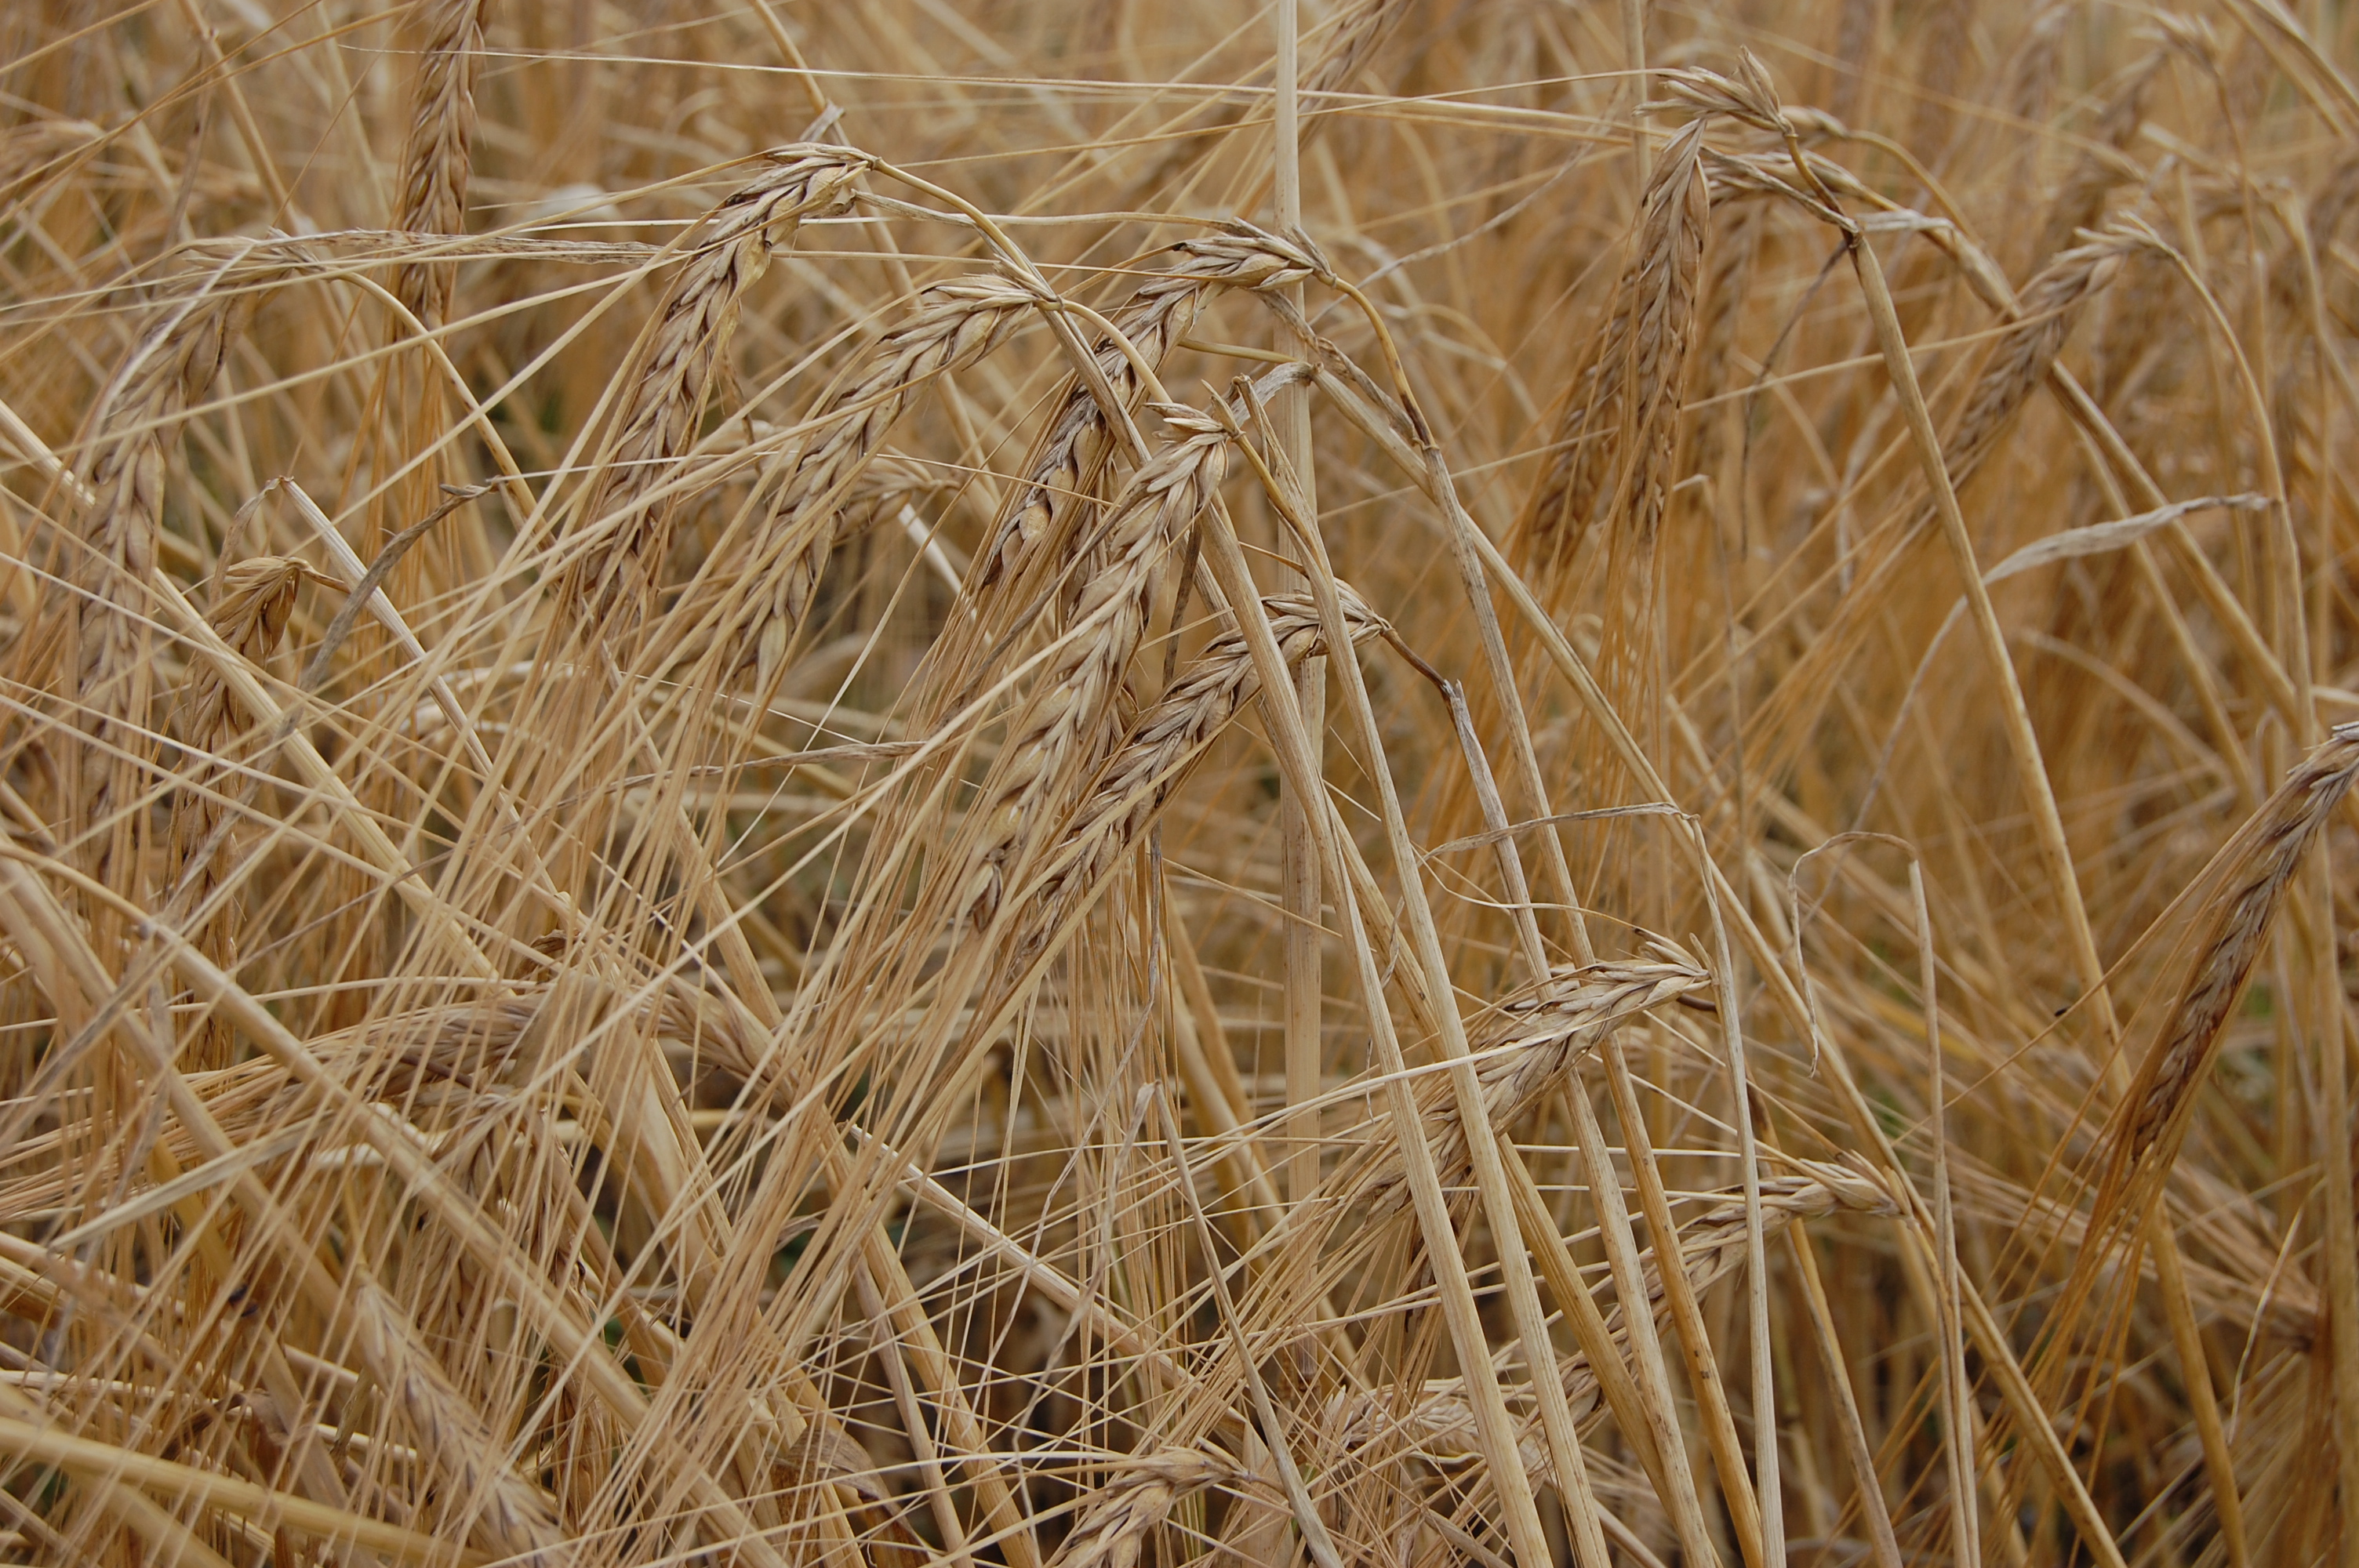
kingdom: Plantae
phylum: Tracheophyta
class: Liliopsida
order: Poales
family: Poaceae
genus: Hordeum
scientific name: Hordeum vulgare
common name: Common barley
